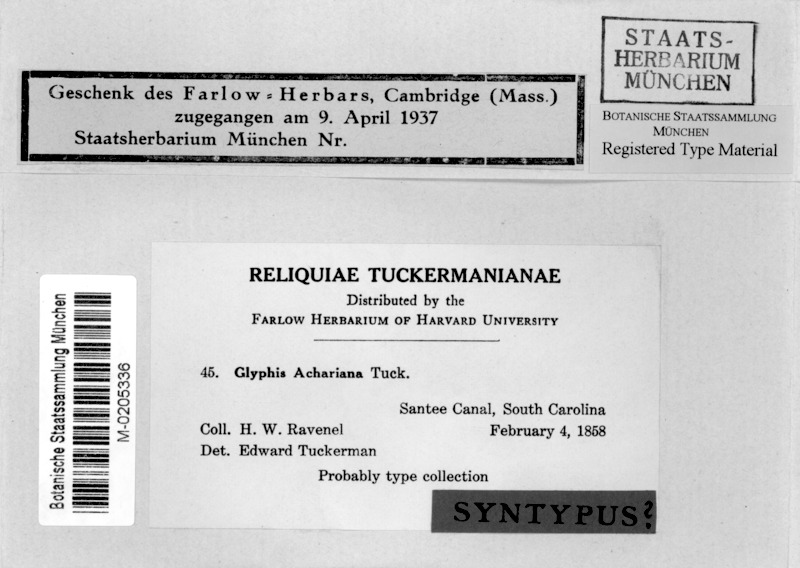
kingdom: Fungi
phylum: Ascomycota
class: Lecanoromycetes
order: Ostropales
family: Graphidaceae
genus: Glyphis
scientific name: Glyphis achariana
